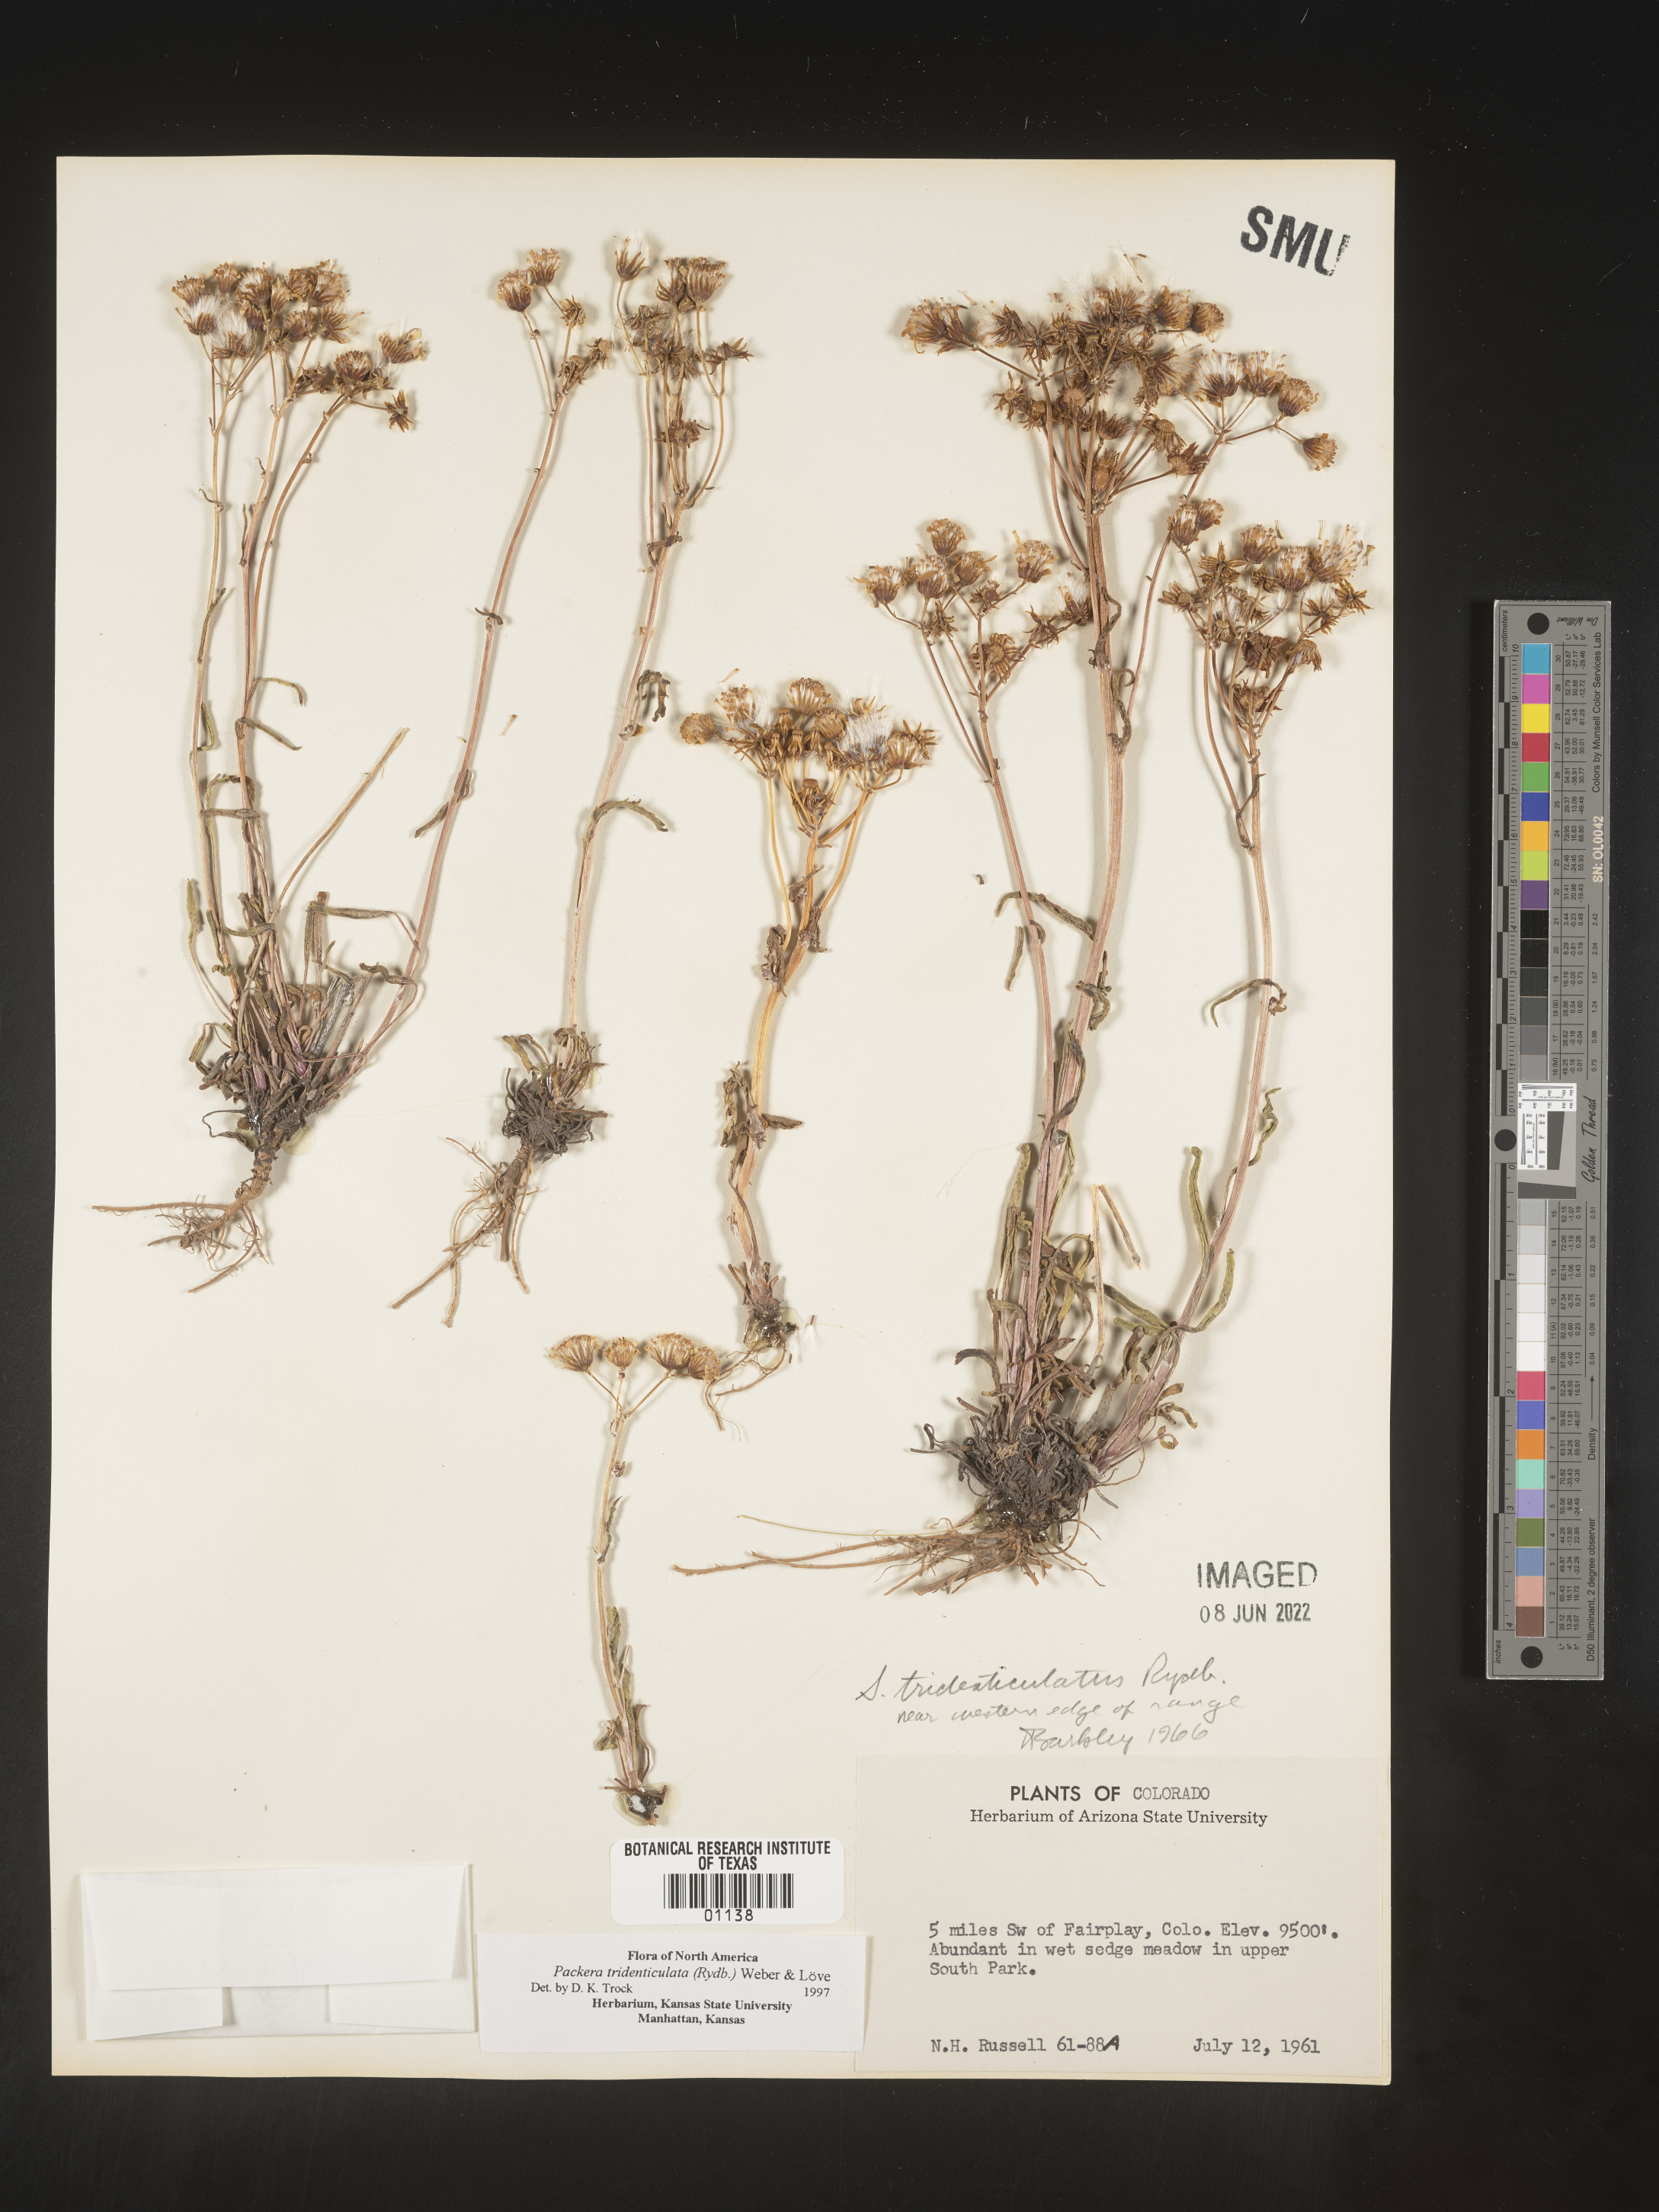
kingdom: Plantae
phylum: Tracheophyta
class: Magnoliopsida
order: Asterales
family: Asteraceae
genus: Packera
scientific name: Packera thurberi
